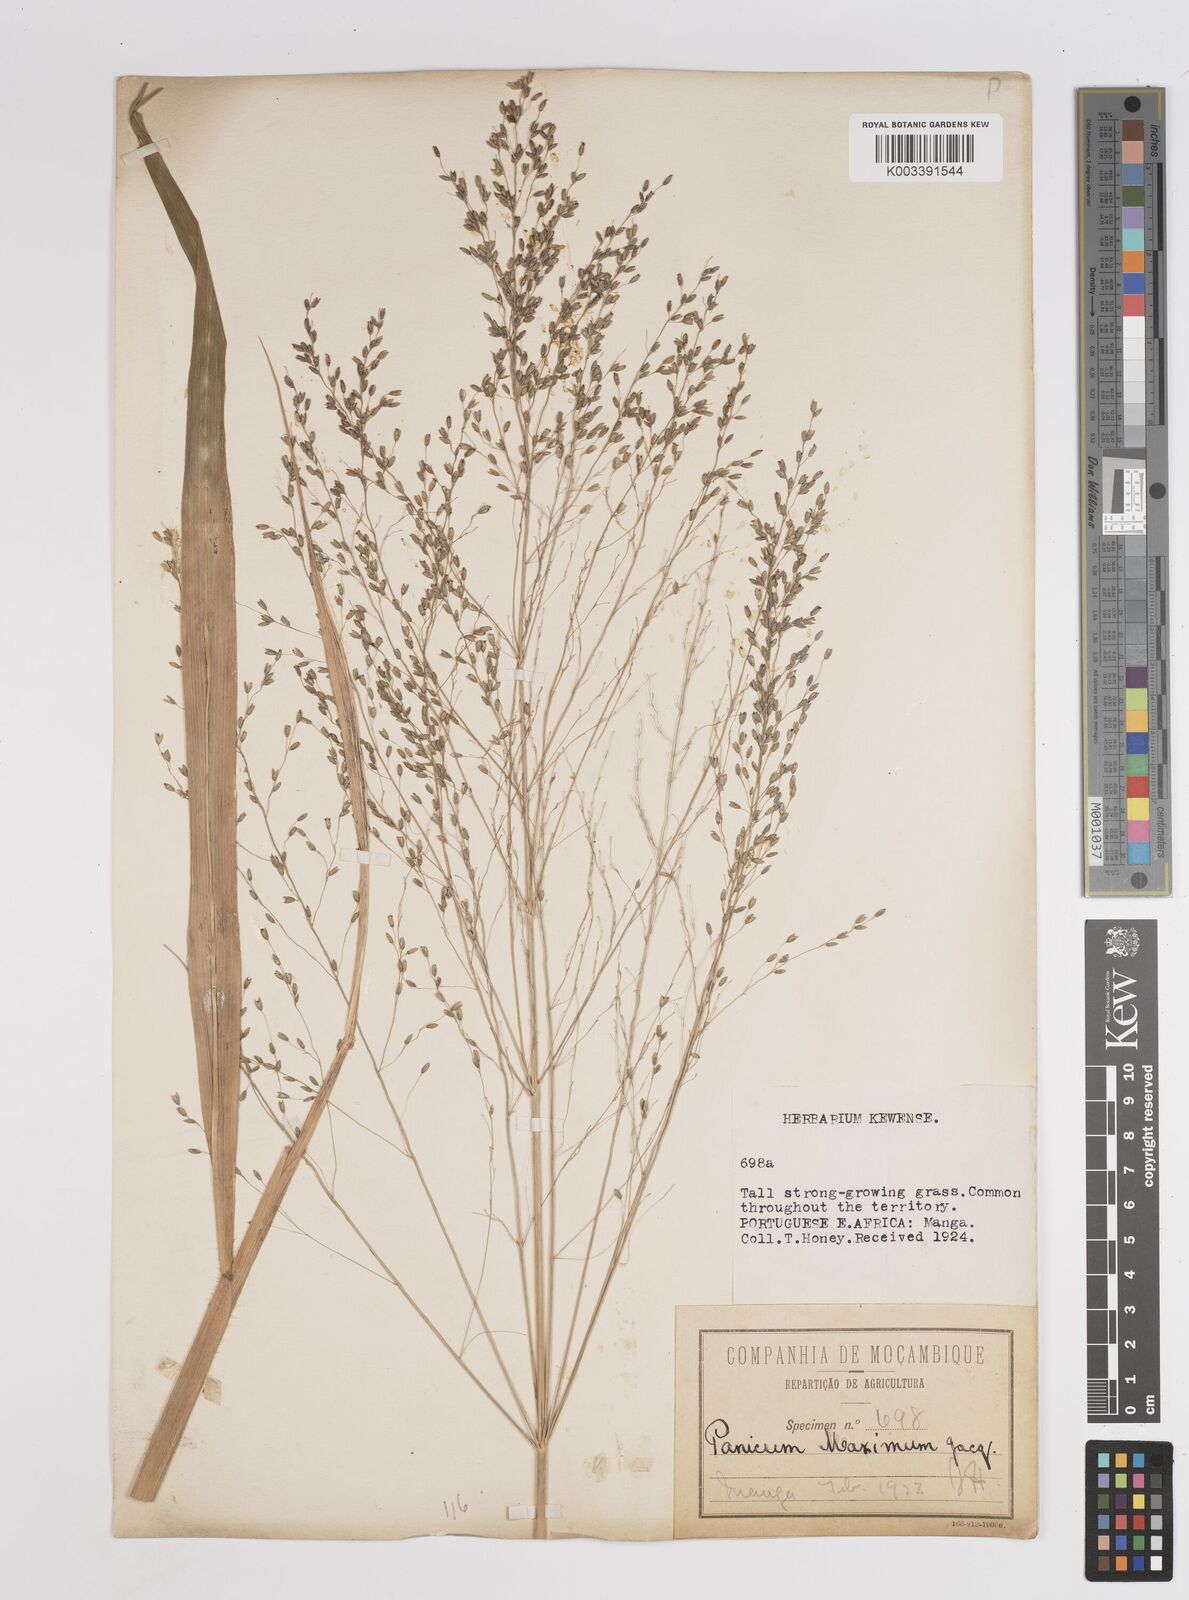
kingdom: Plantae
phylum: Tracheophyta
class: Liliopsida
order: Poales
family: Poaceae
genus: Megathyrsus
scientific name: Megathyrsus maximus
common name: Guineagrass
